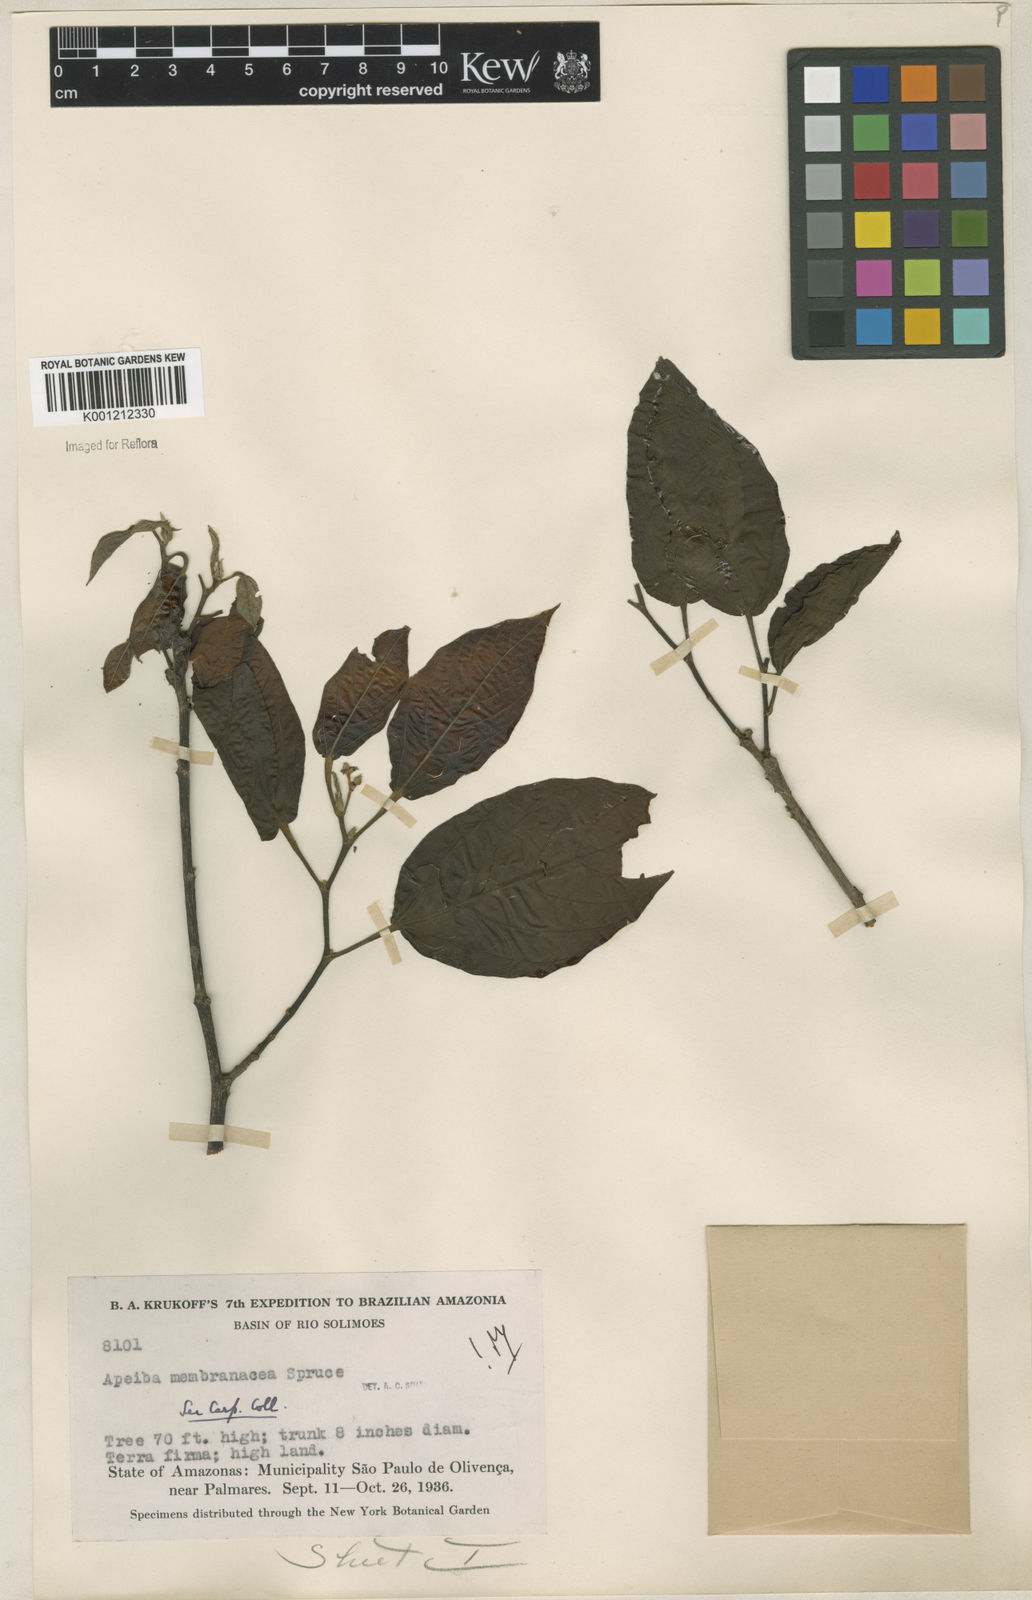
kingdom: Plantae
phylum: Tracheophyta
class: Magnoliopsida
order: Malvales
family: Malvaceae
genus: Apeiba
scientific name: Apeiba membranacea
